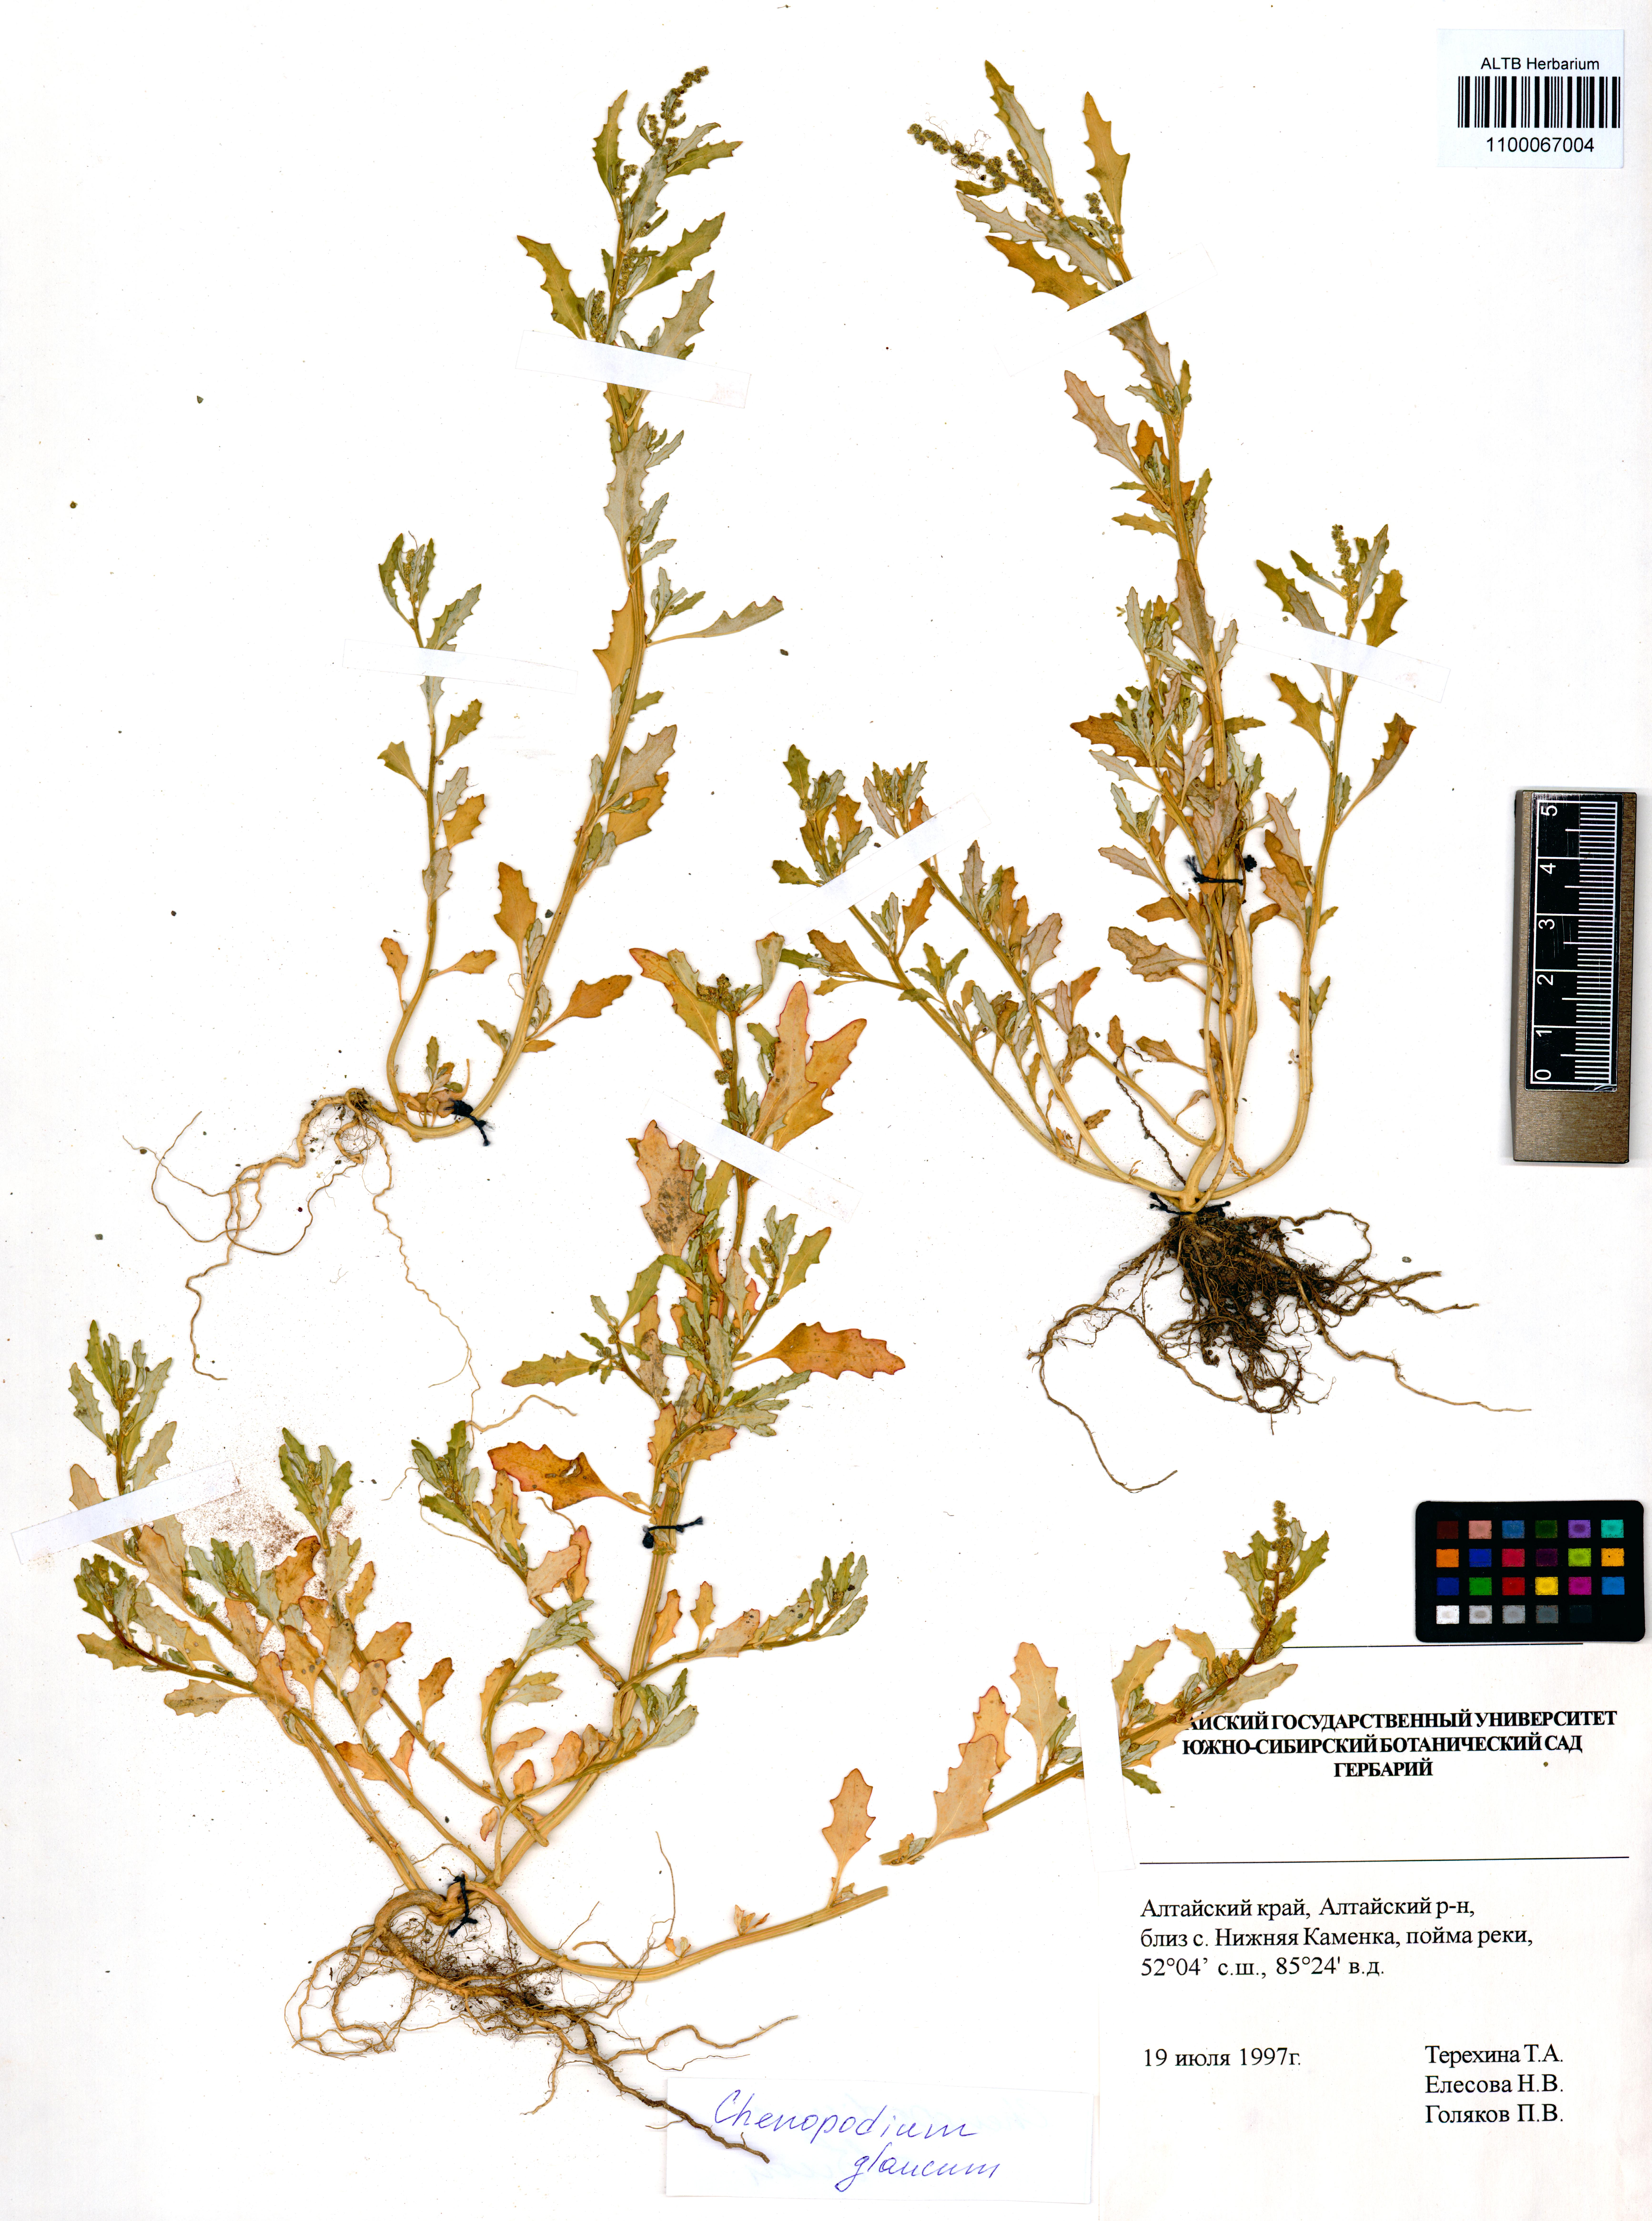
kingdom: Plantae
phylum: Tracheophyta
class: Magnoliopsida
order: Caryophyllales
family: Amaranthaceae
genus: Oxybasis
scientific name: Oxybasis glauca
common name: Glaucous goosefoot
